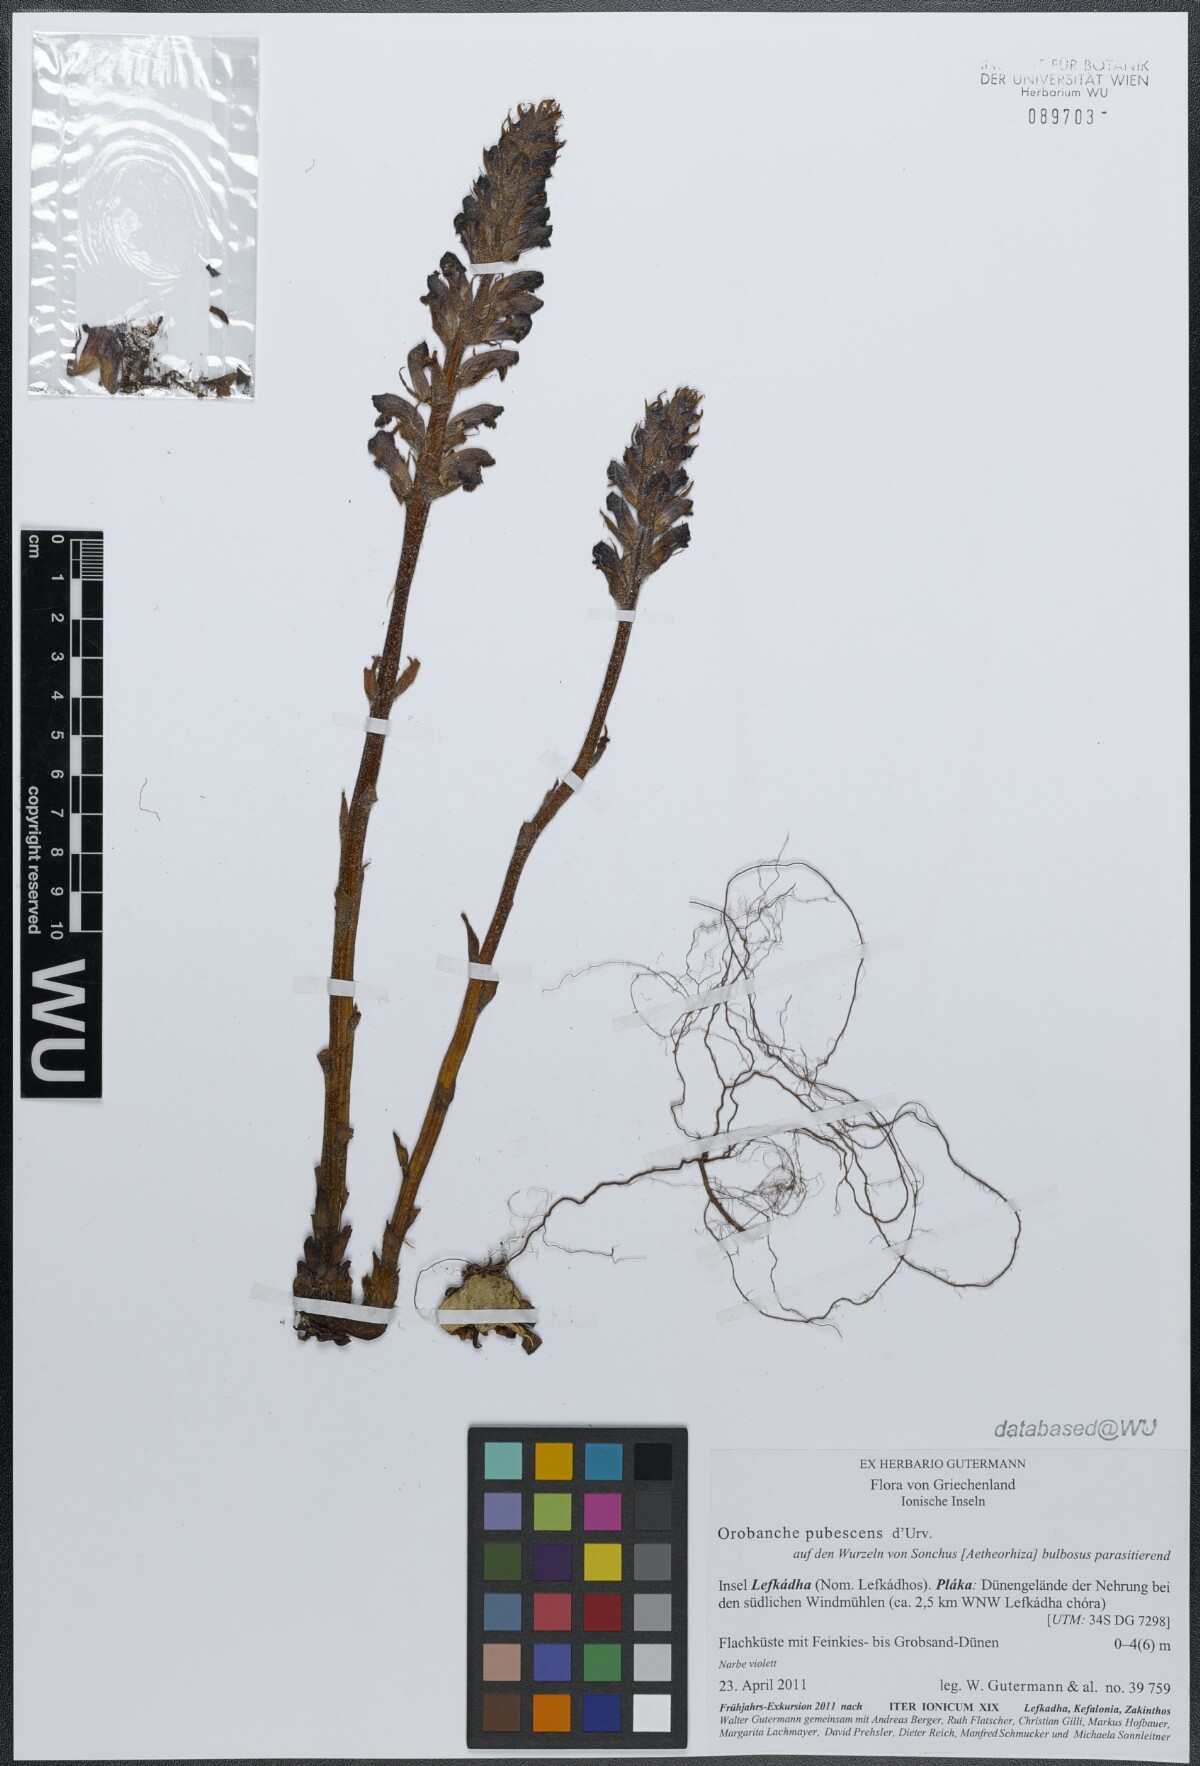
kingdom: Plantae
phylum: Tracheophyta
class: Magnoliopsida
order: Lamiales
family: Orobanchaceae
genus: Orobanche
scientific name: Orobanche pubescens
